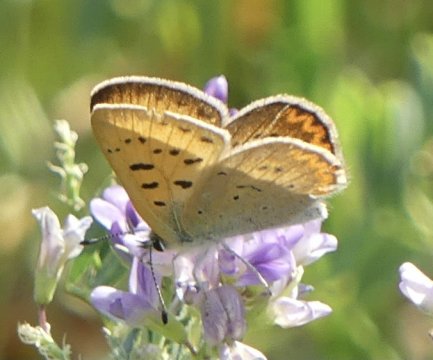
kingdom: Animalia
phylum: Arthropoda
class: Insecta
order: Lepidoptera
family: Sesiidae
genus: Sesia
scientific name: Sesia Lycaena helloides
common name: Purplish Copper
